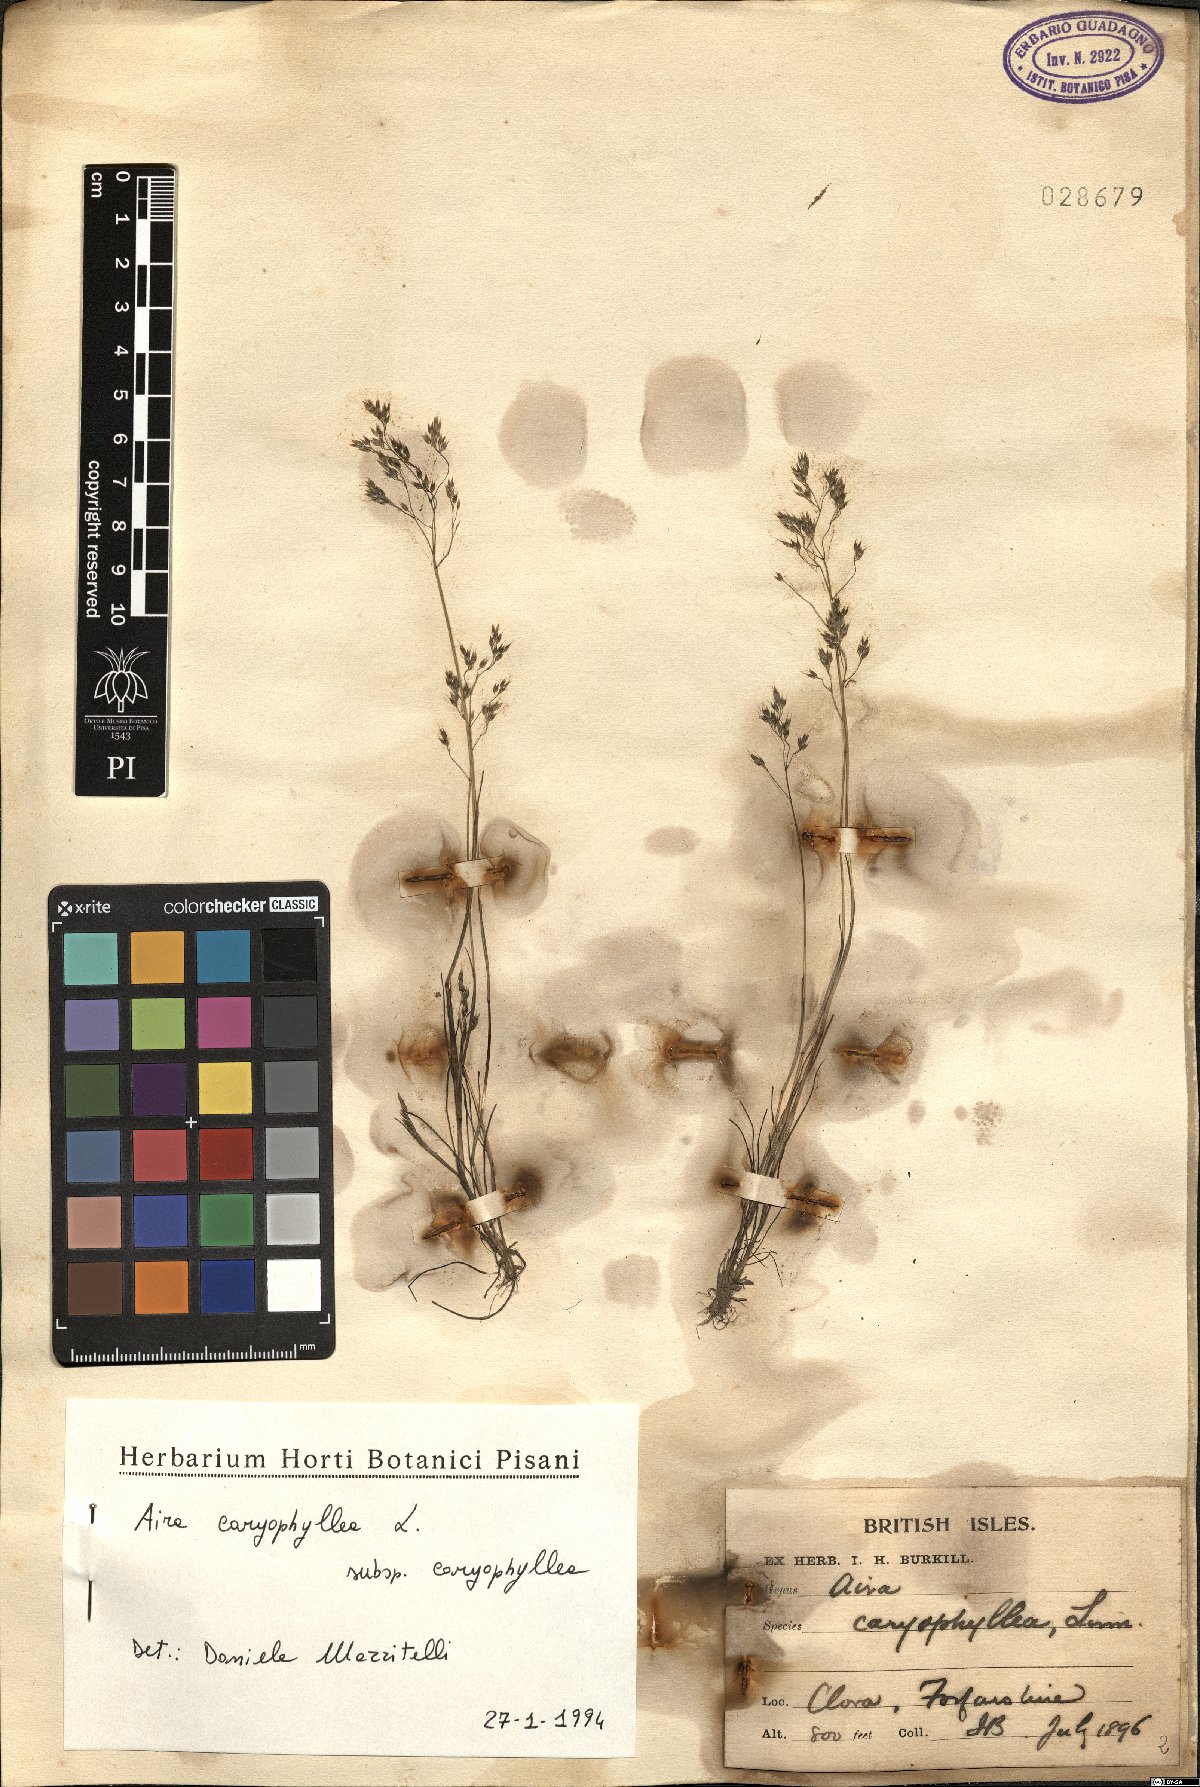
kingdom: Plantae
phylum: Tracheophyta
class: Liliopsida
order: Poales
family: Poaceae
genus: Aira
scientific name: Aira caryophyllea
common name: Silver hairgrass
